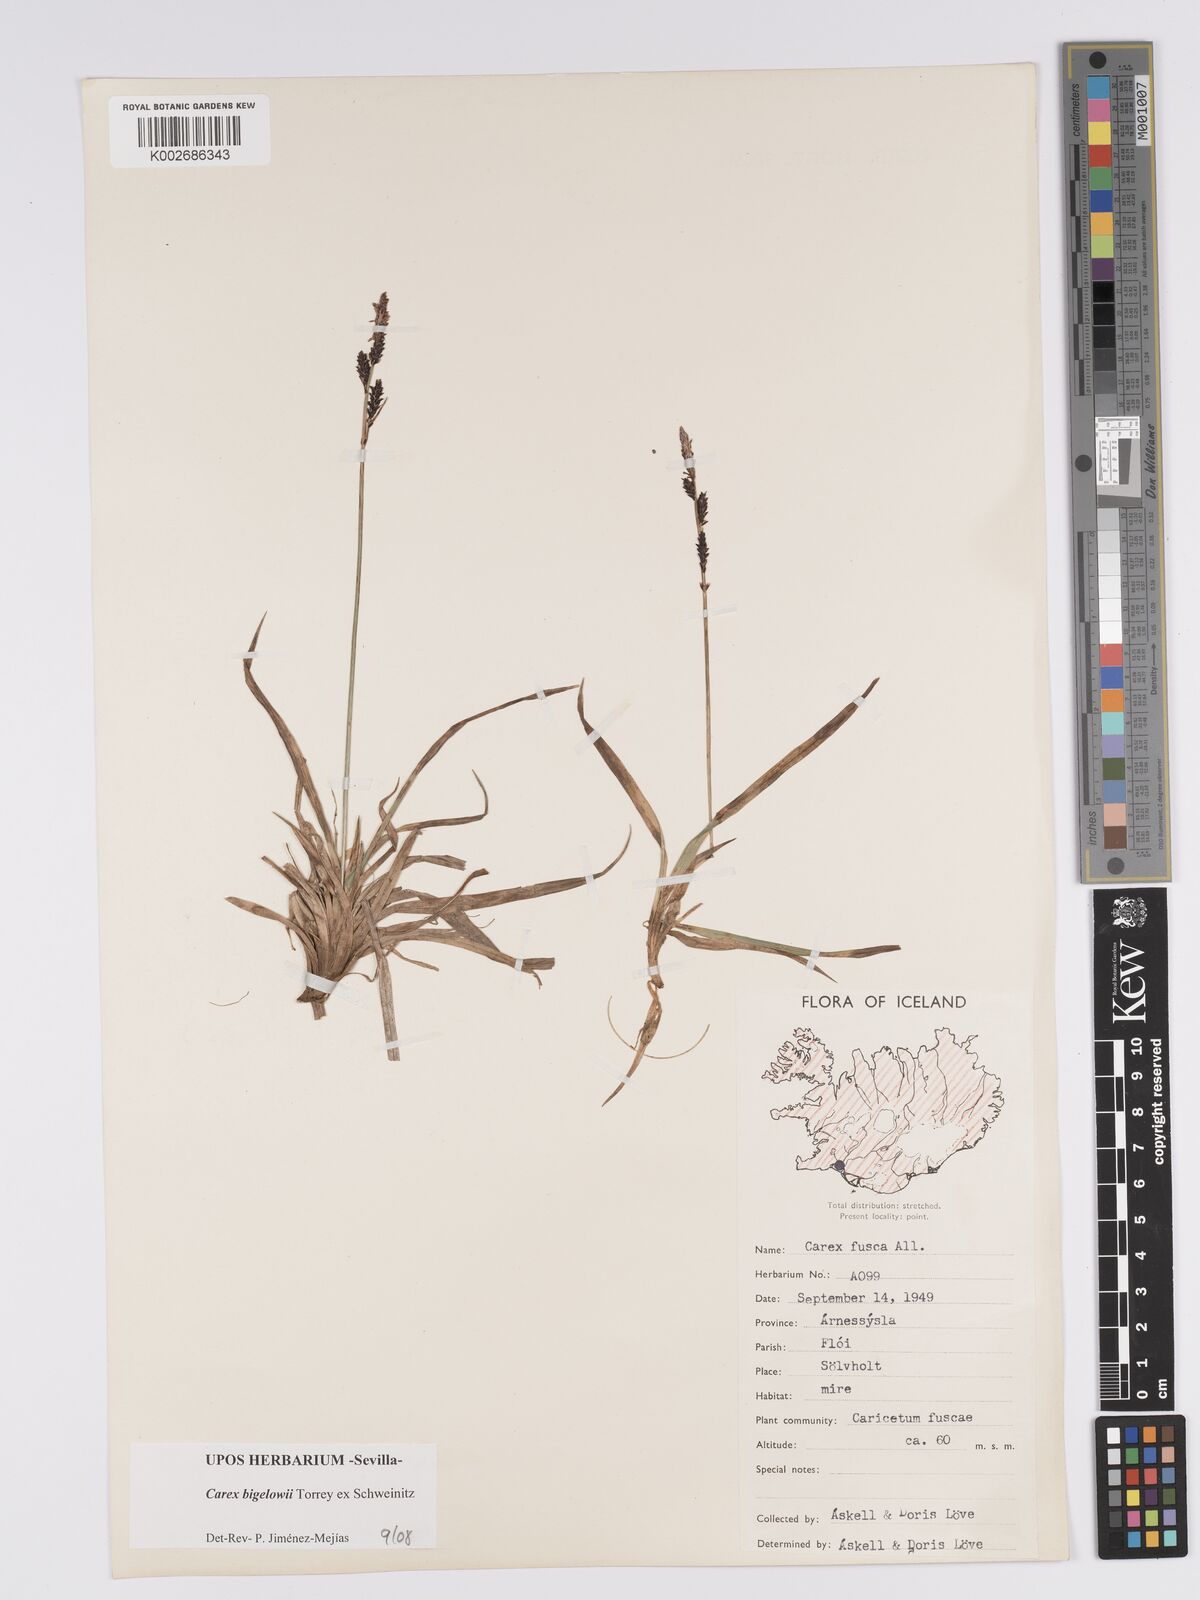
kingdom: Plantae
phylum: Tracheophyta
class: Liliopsida
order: Poales
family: Cyperaceae
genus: Carex
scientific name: Carex bigelowii
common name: Stiff sedge
